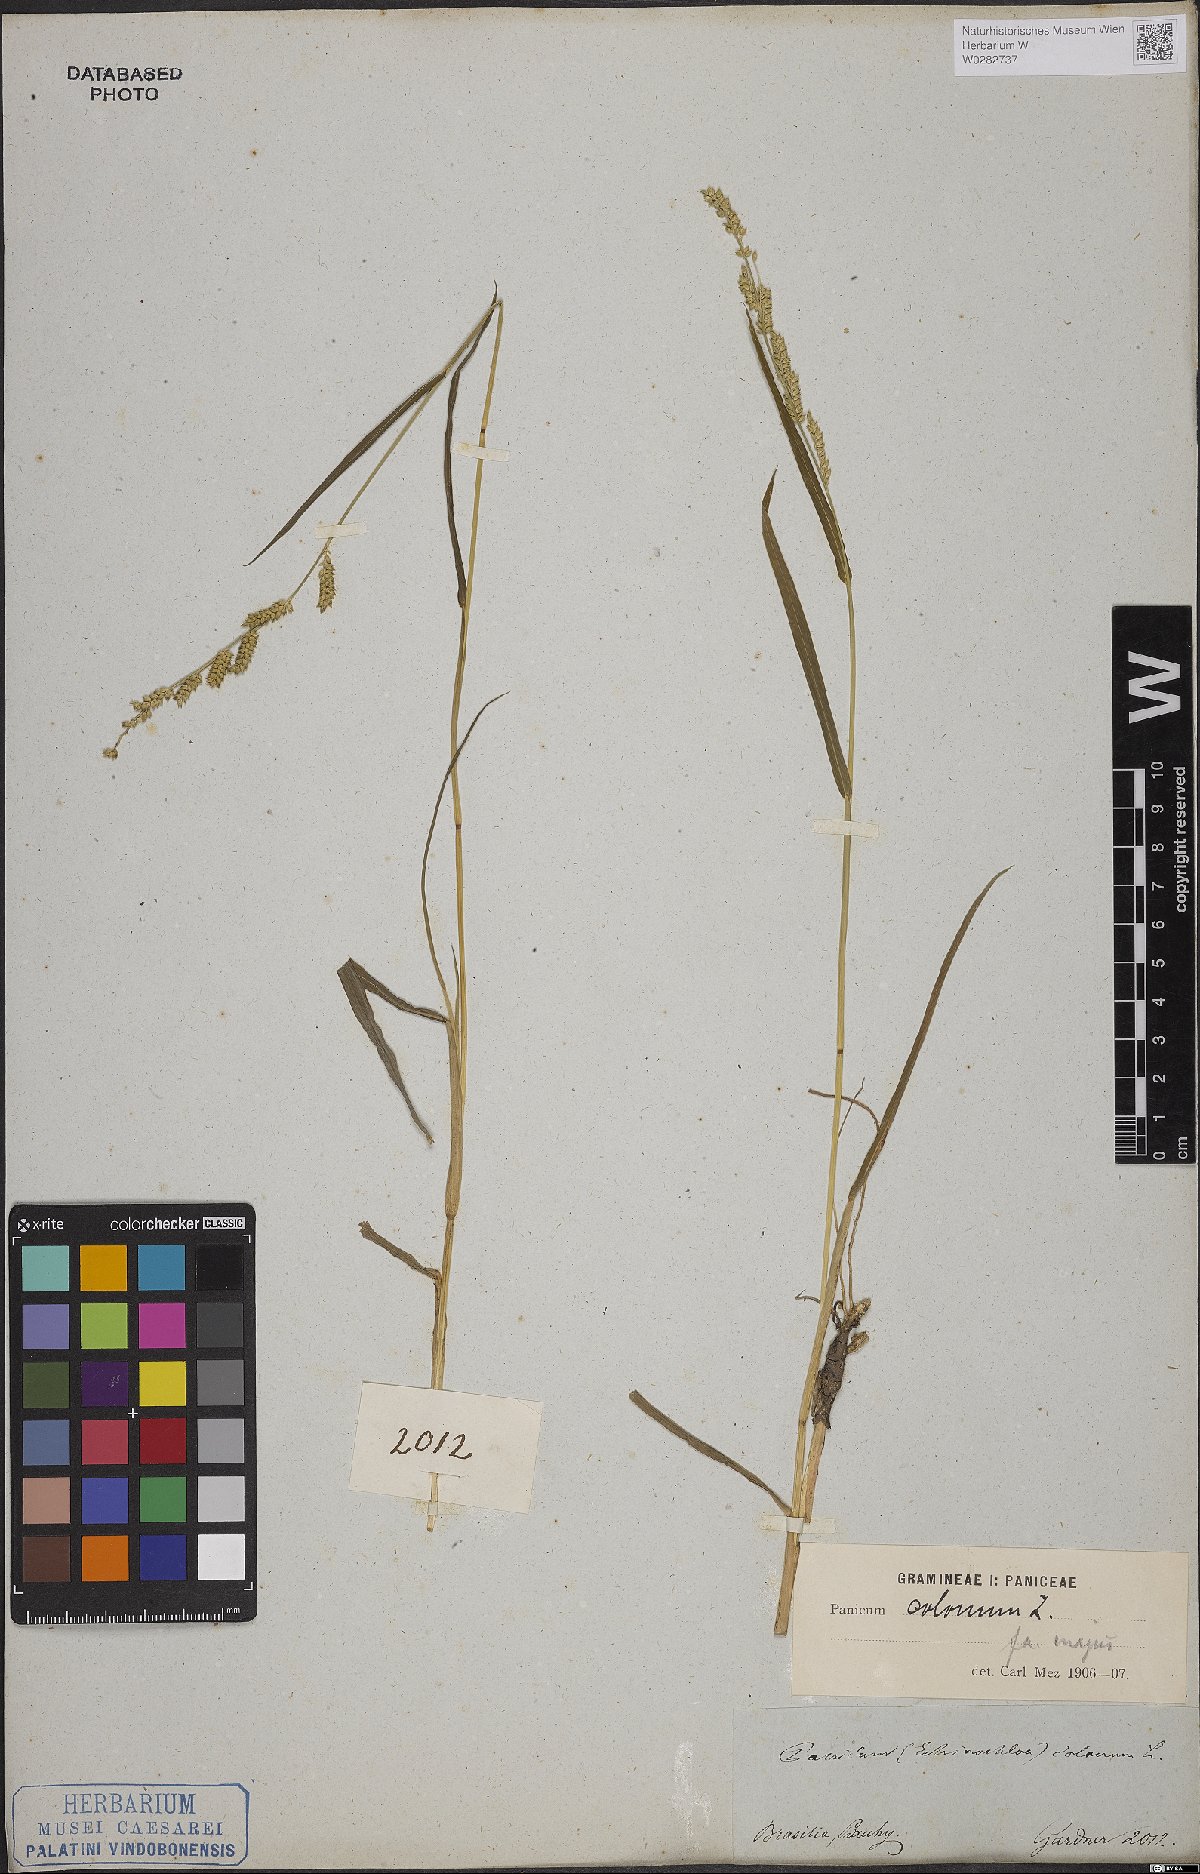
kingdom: Plantae
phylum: Tracheophyta
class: Liliopsida
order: Poales
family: Poaceae
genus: Echinochloa
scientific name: Echinochloa colonum
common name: Jungle rice
